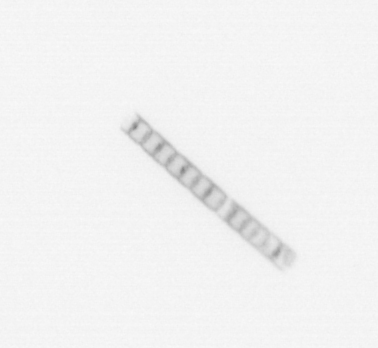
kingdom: Chromista
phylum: Ochrophyta
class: Bacillariophyceae
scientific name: Bacillariophyceae
